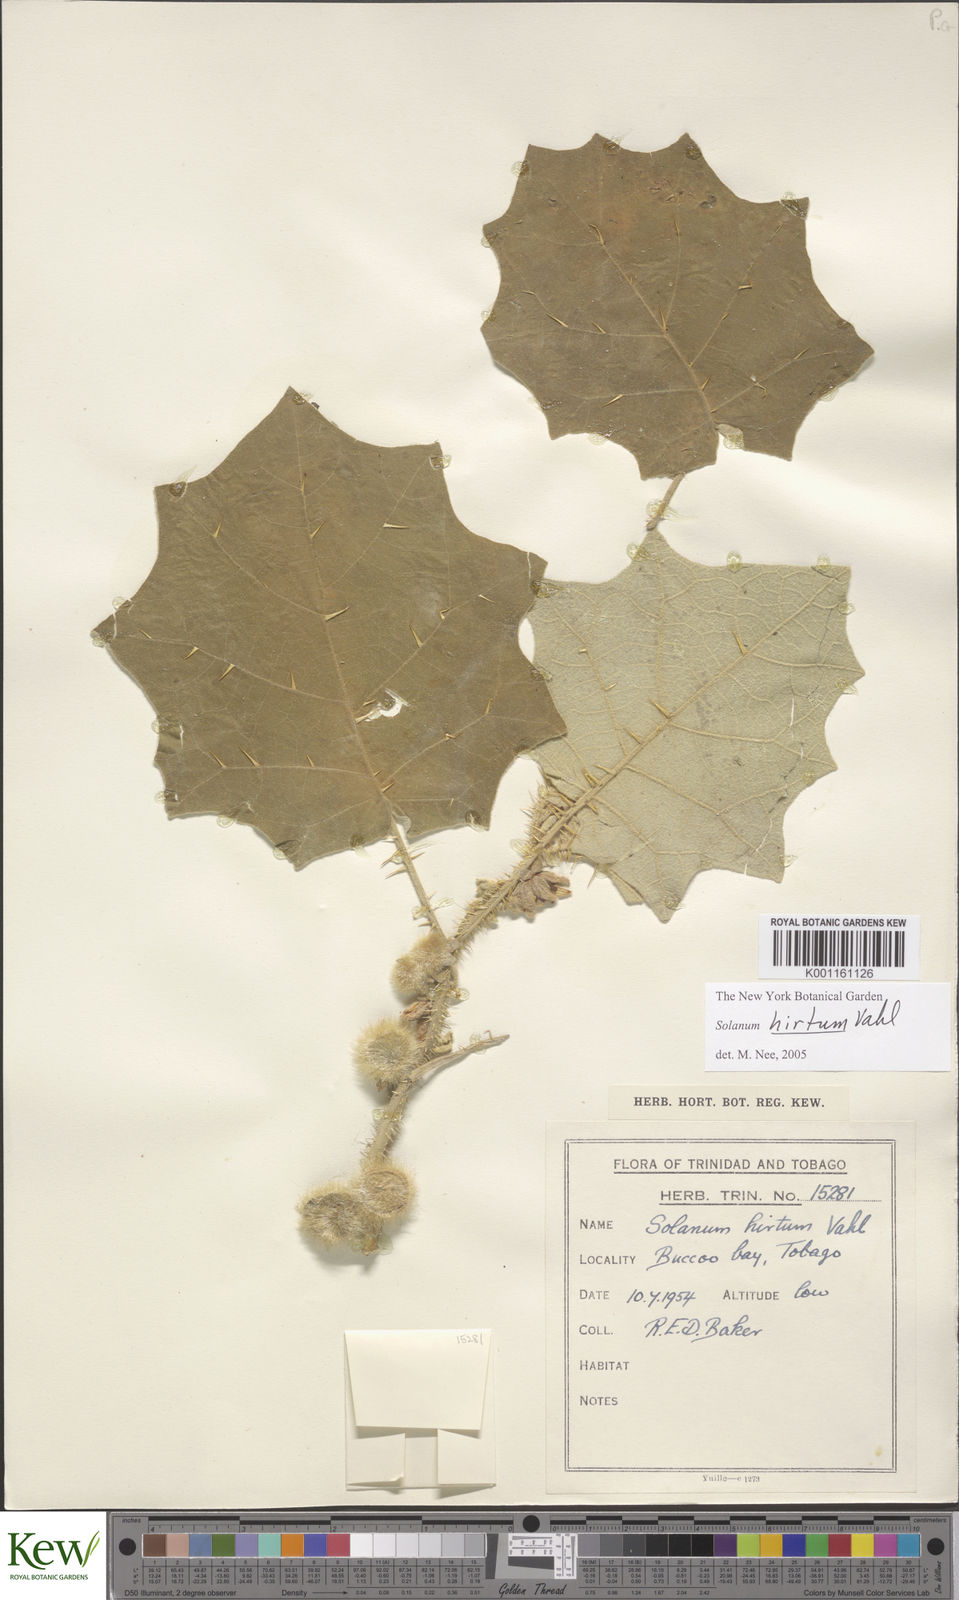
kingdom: Plantae
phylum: Tracheophyta
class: Magnoliopsida
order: Solanales
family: Solanaceae
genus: Solanum
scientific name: Solanum hirtum
